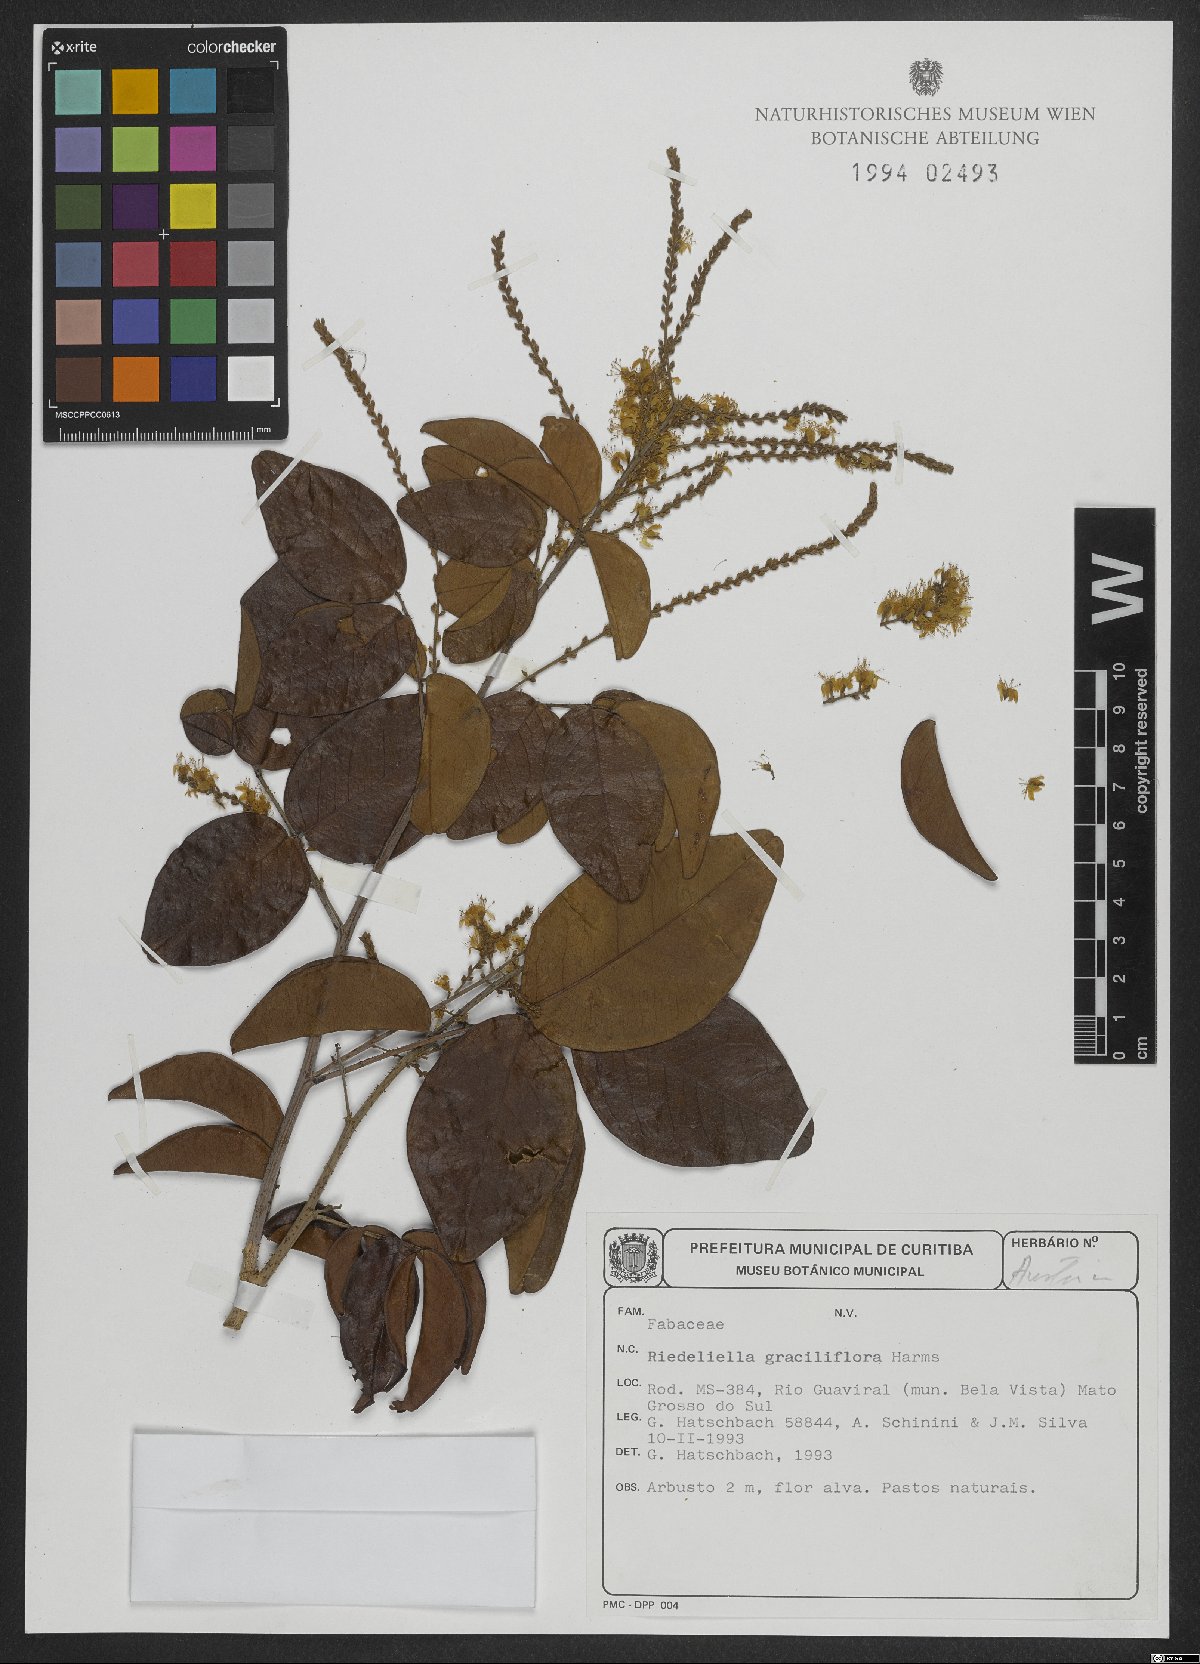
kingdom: Plantae
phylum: Tracheophyta
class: Magnoliopsida
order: Fabales
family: Fabaceae
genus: Riedeliella
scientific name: Riedeliella graciliflora
